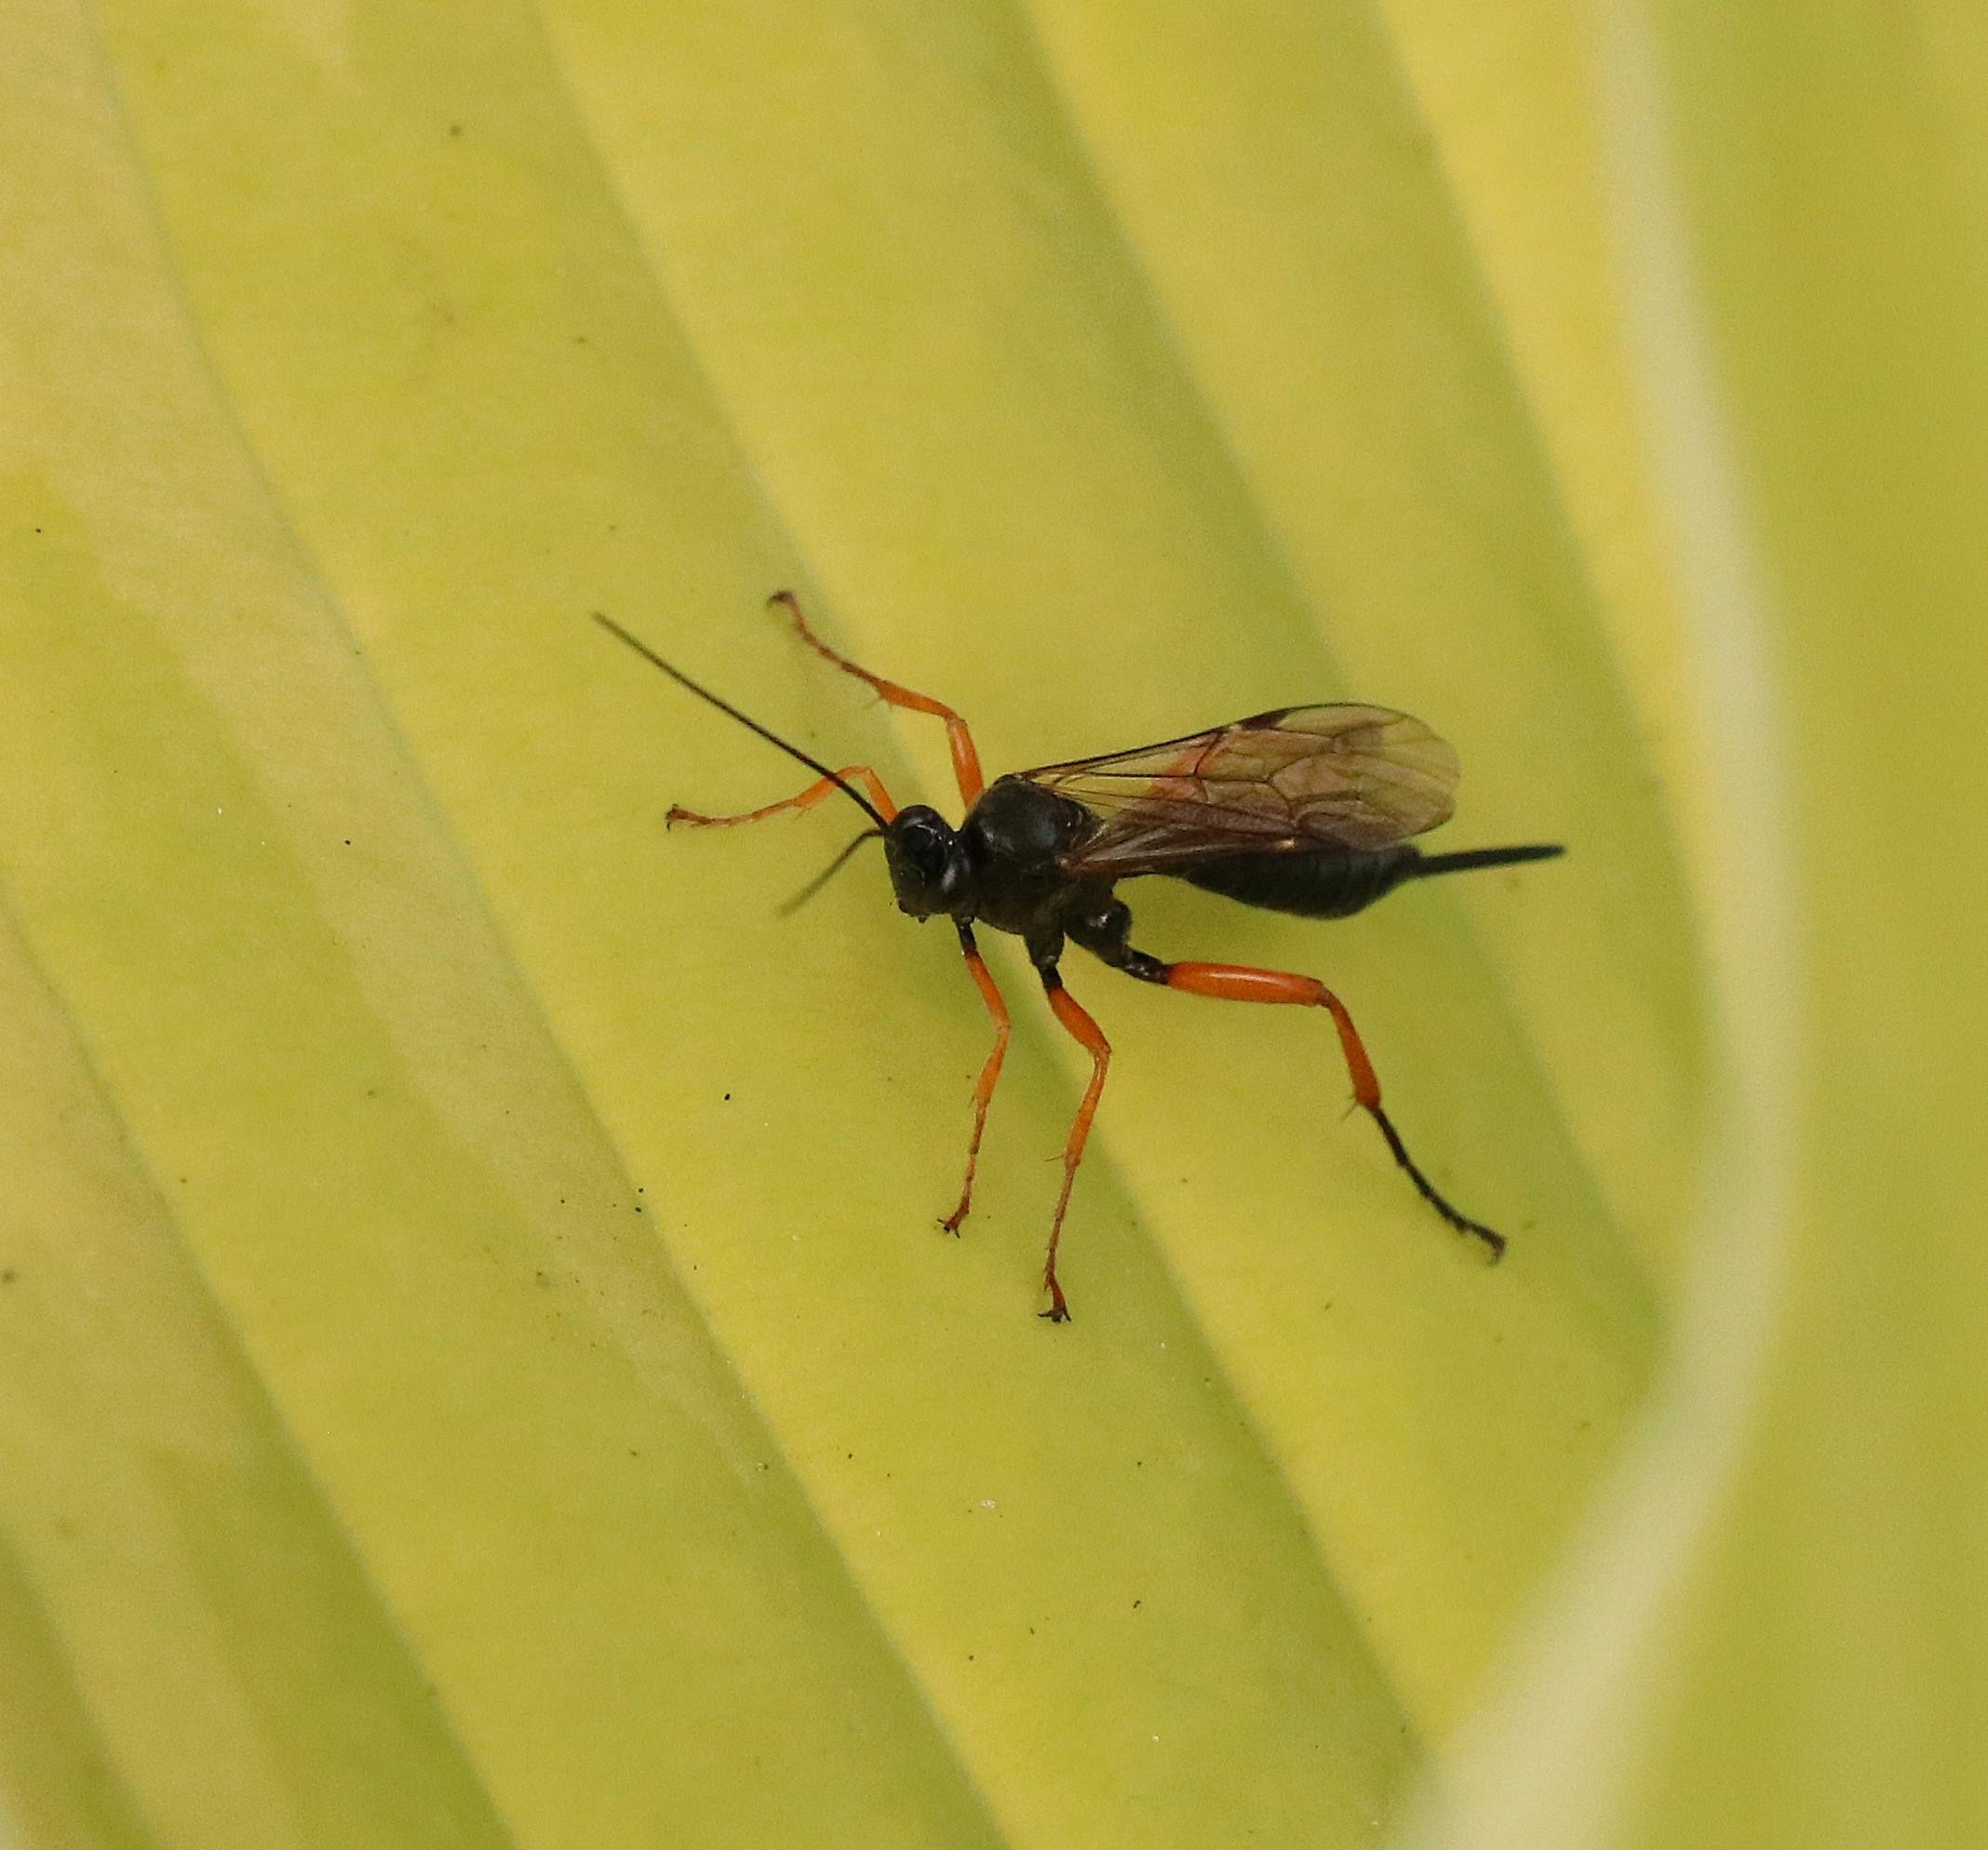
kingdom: Animalia
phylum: Arthropoda
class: Insecta
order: Hymenoptera
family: Ichneumonidae
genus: Pimpla
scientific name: Pimpla rufipes
